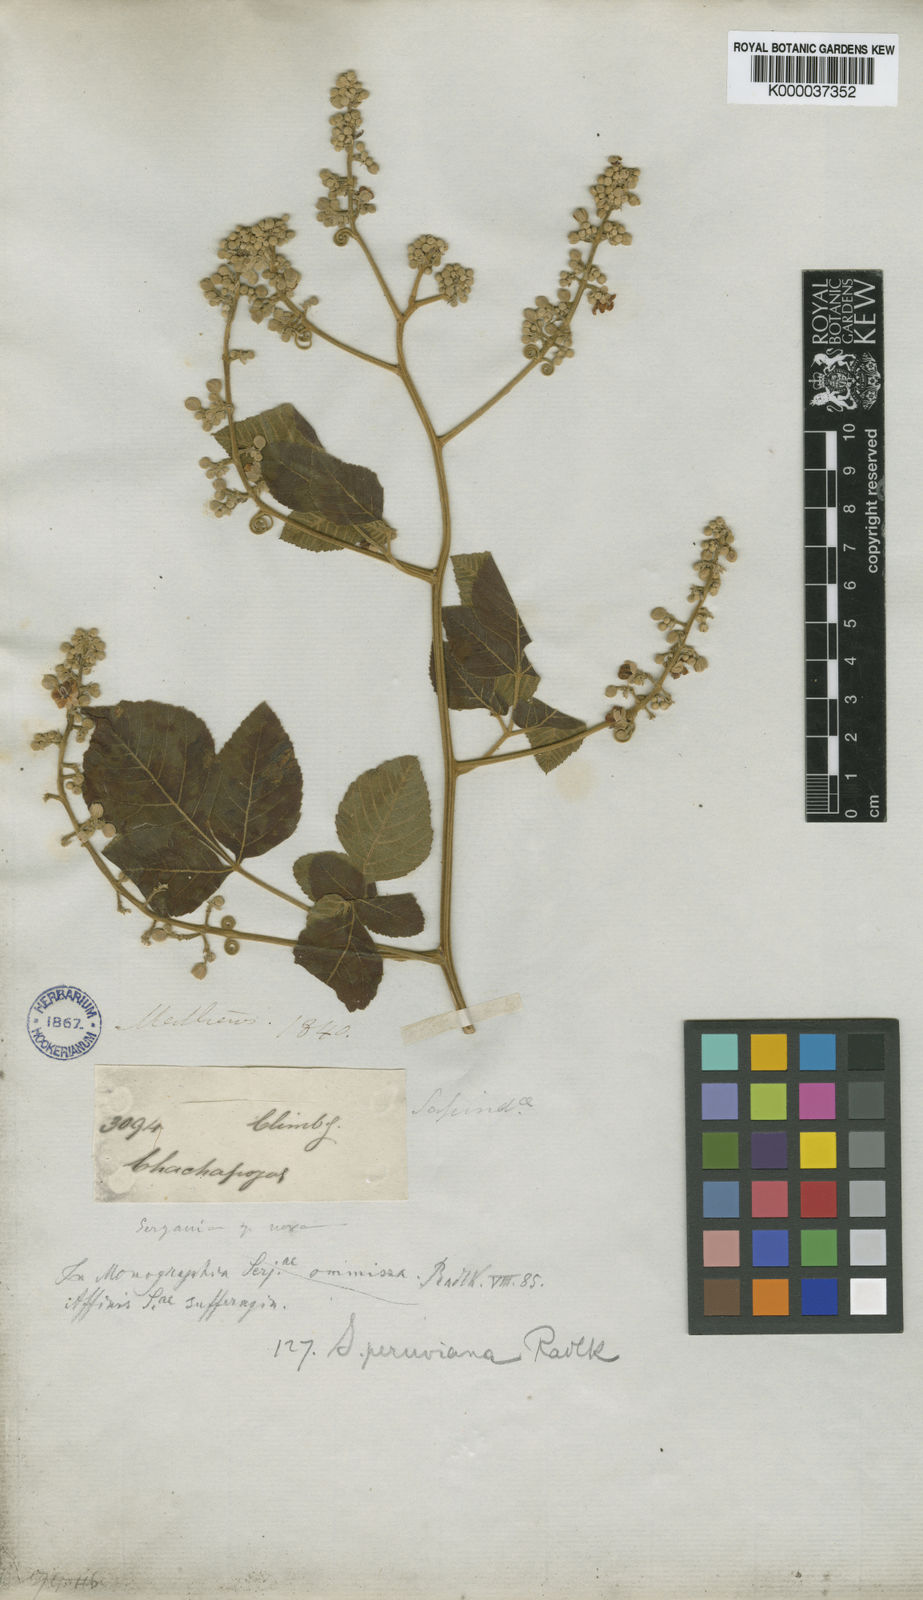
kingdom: Plantae
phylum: Tracheophyta
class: Magnoliopsida
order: Sapindales
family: Sapindaceae
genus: Serjania
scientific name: Serjania peruviana
